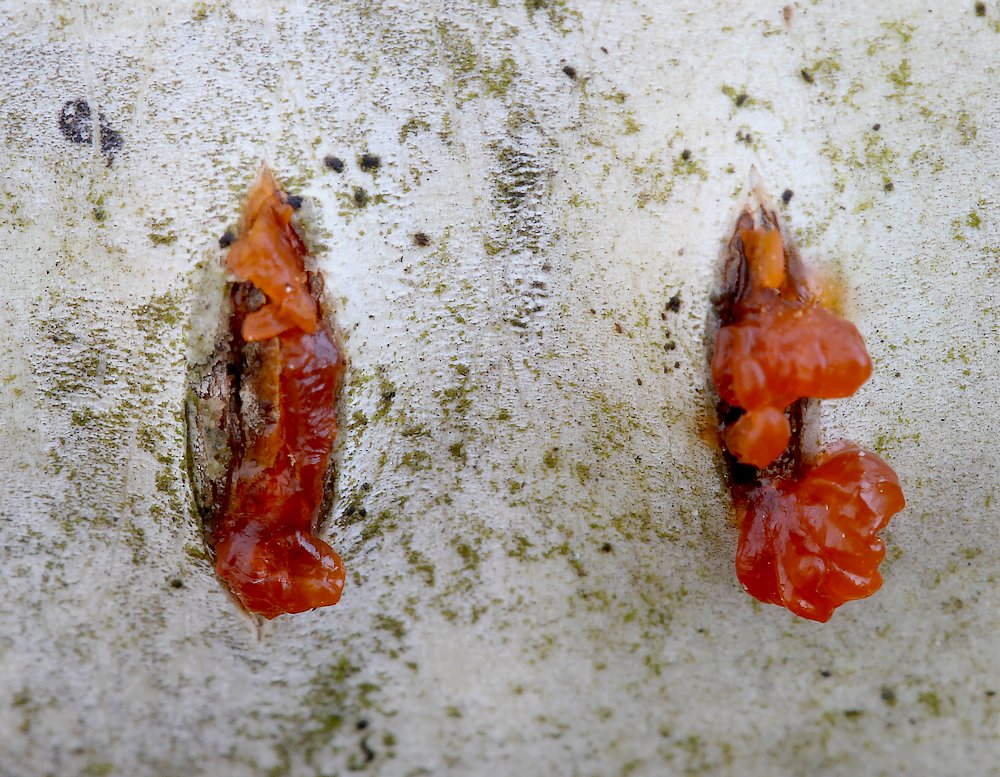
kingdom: Fungi
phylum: Ascomycota
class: Sordariomycetes
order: Xylariales
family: Diatrypaceae
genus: Diatrype
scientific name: Diatrype
